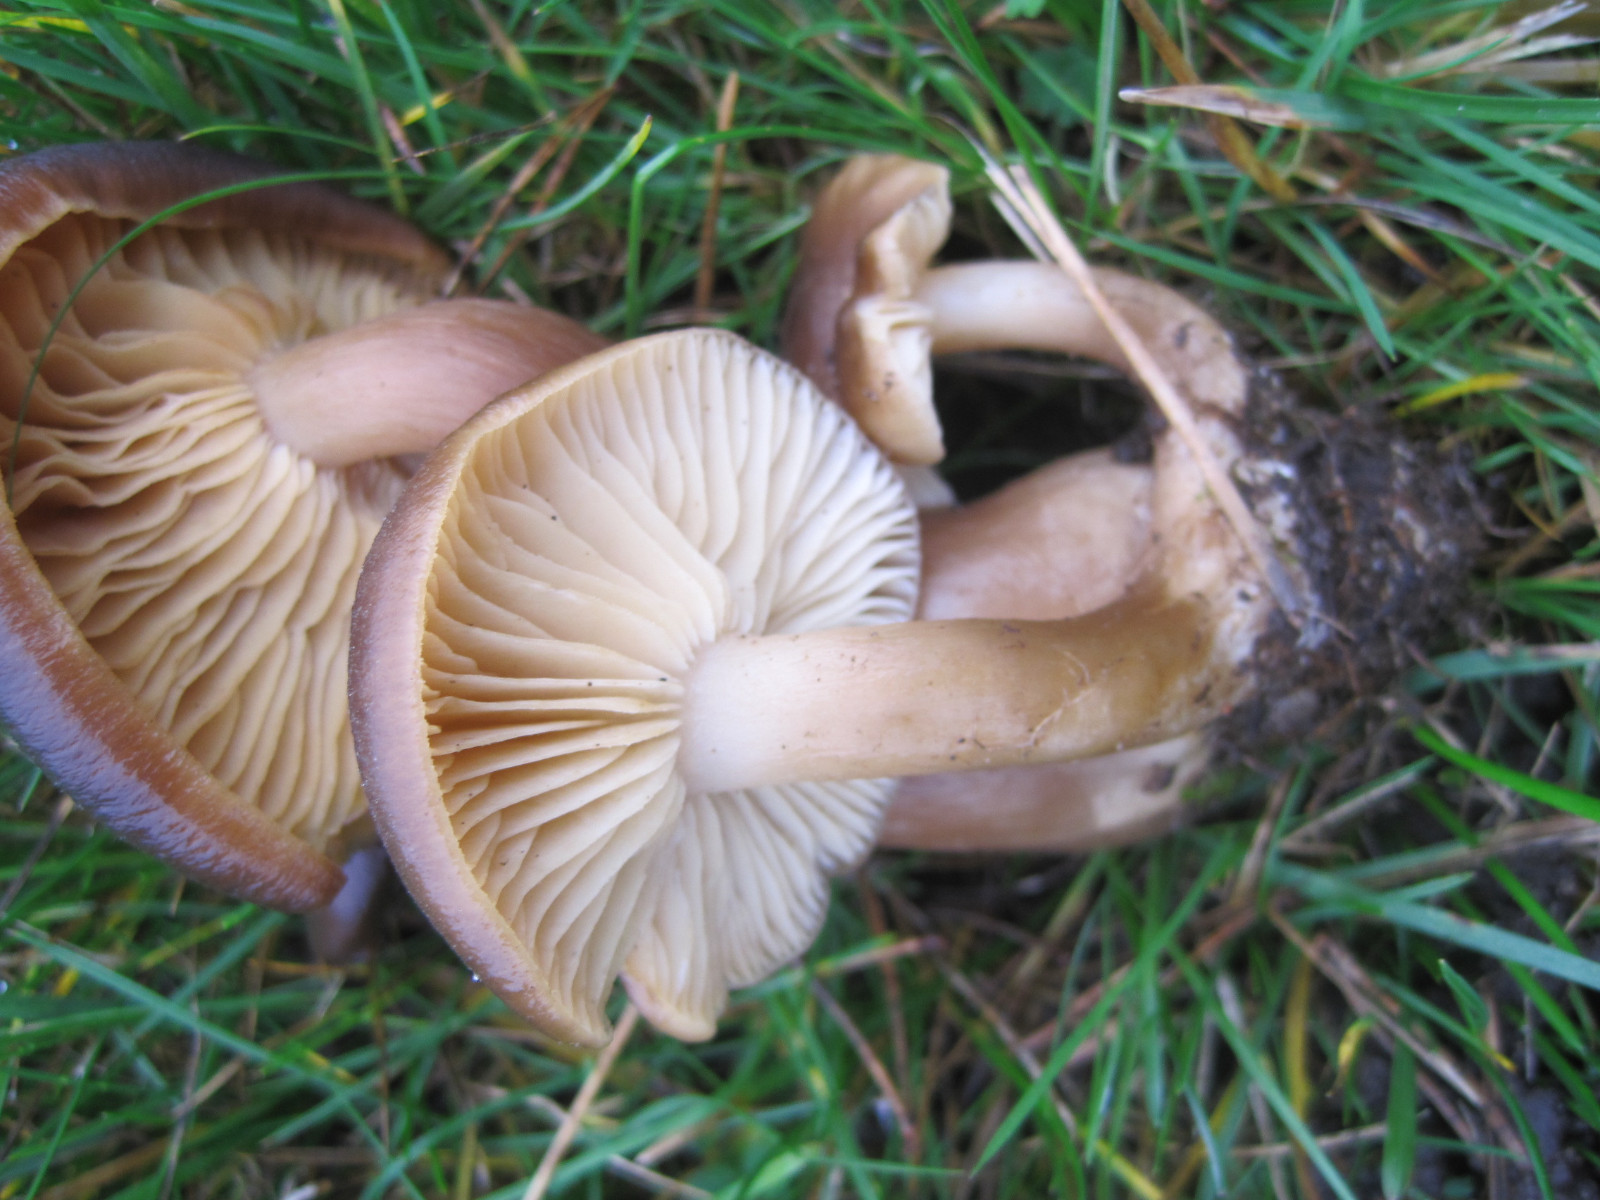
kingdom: Fungi
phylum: Basidiomycota
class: Agaricomycetes
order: Agaricales
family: Lyophyllaceae
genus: Lyophyllum
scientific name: Lyophyllum decastes
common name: Clustered domecap
